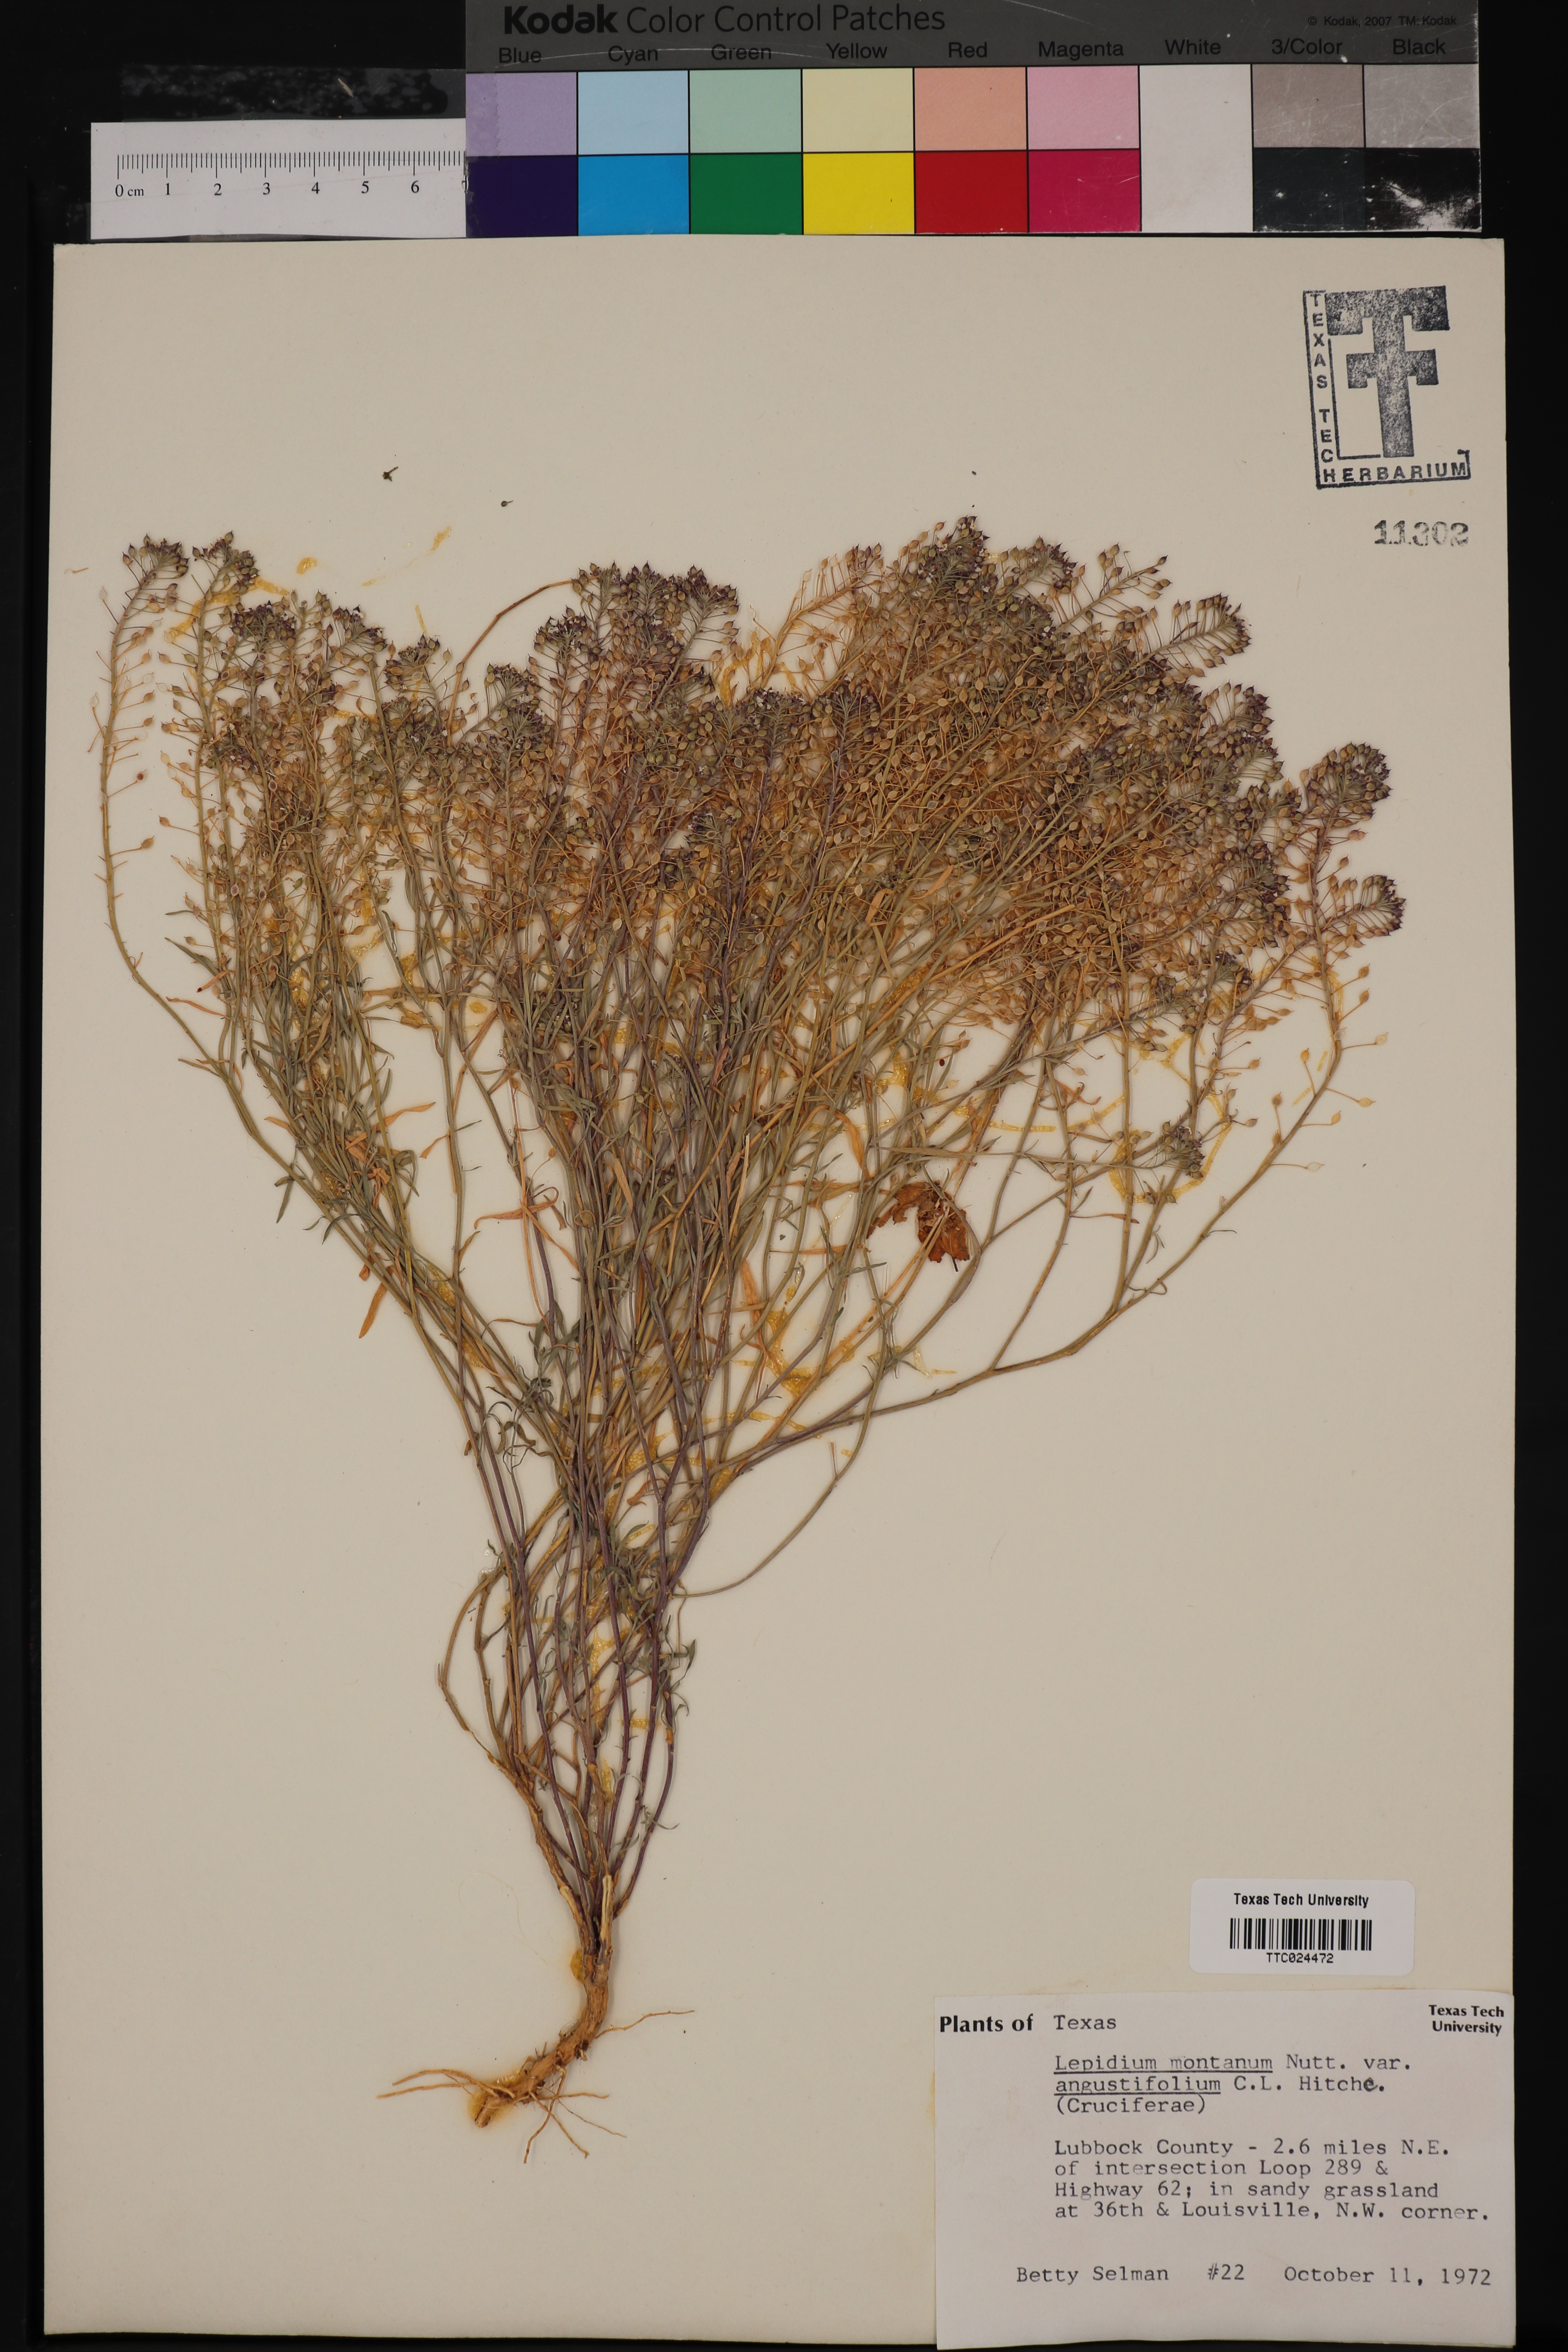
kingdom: Plantae
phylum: Tracheophyta
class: Magnoliopsida
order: Brassicales
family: Brassicaceae
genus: Lepidium
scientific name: Lepidium alyssoides
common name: Mesa pepperweed
